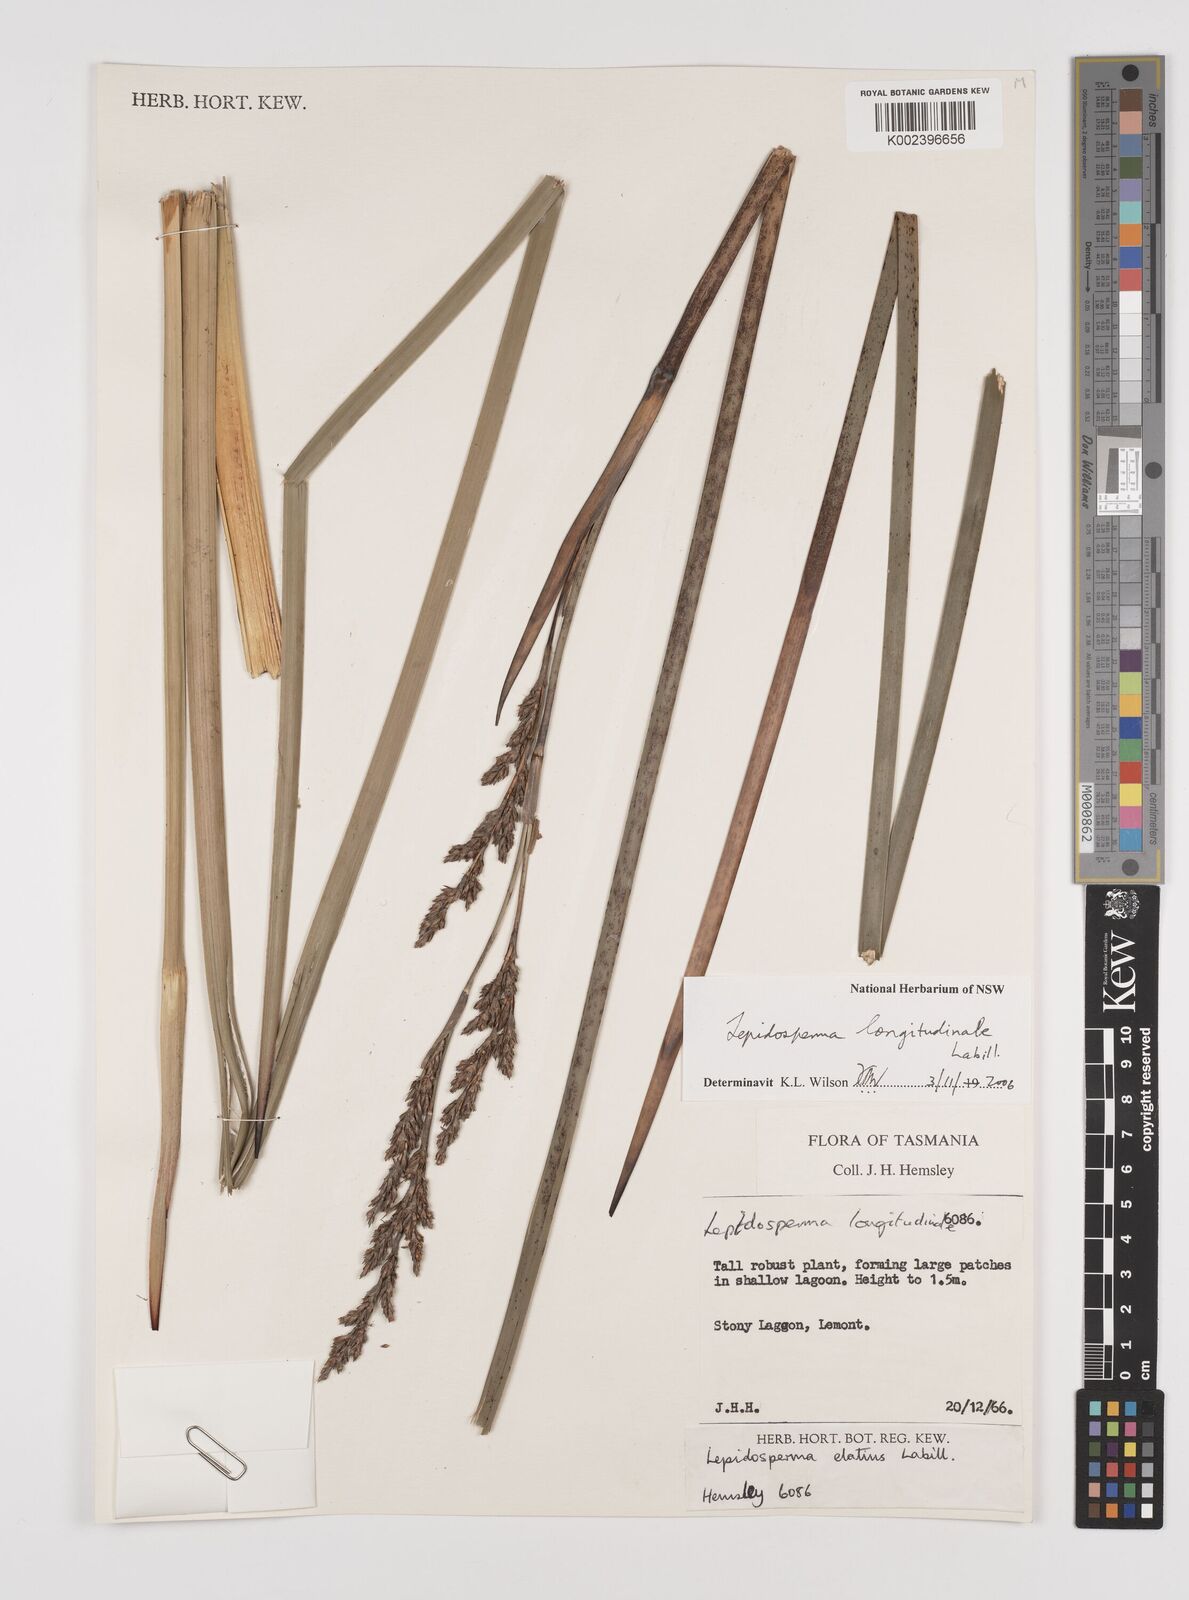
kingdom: Plantae
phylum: Tracheophyta
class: Liliopsida
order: Poales
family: Cyperaceae
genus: Lepidosperma
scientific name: Lepidosperma longitudinale
